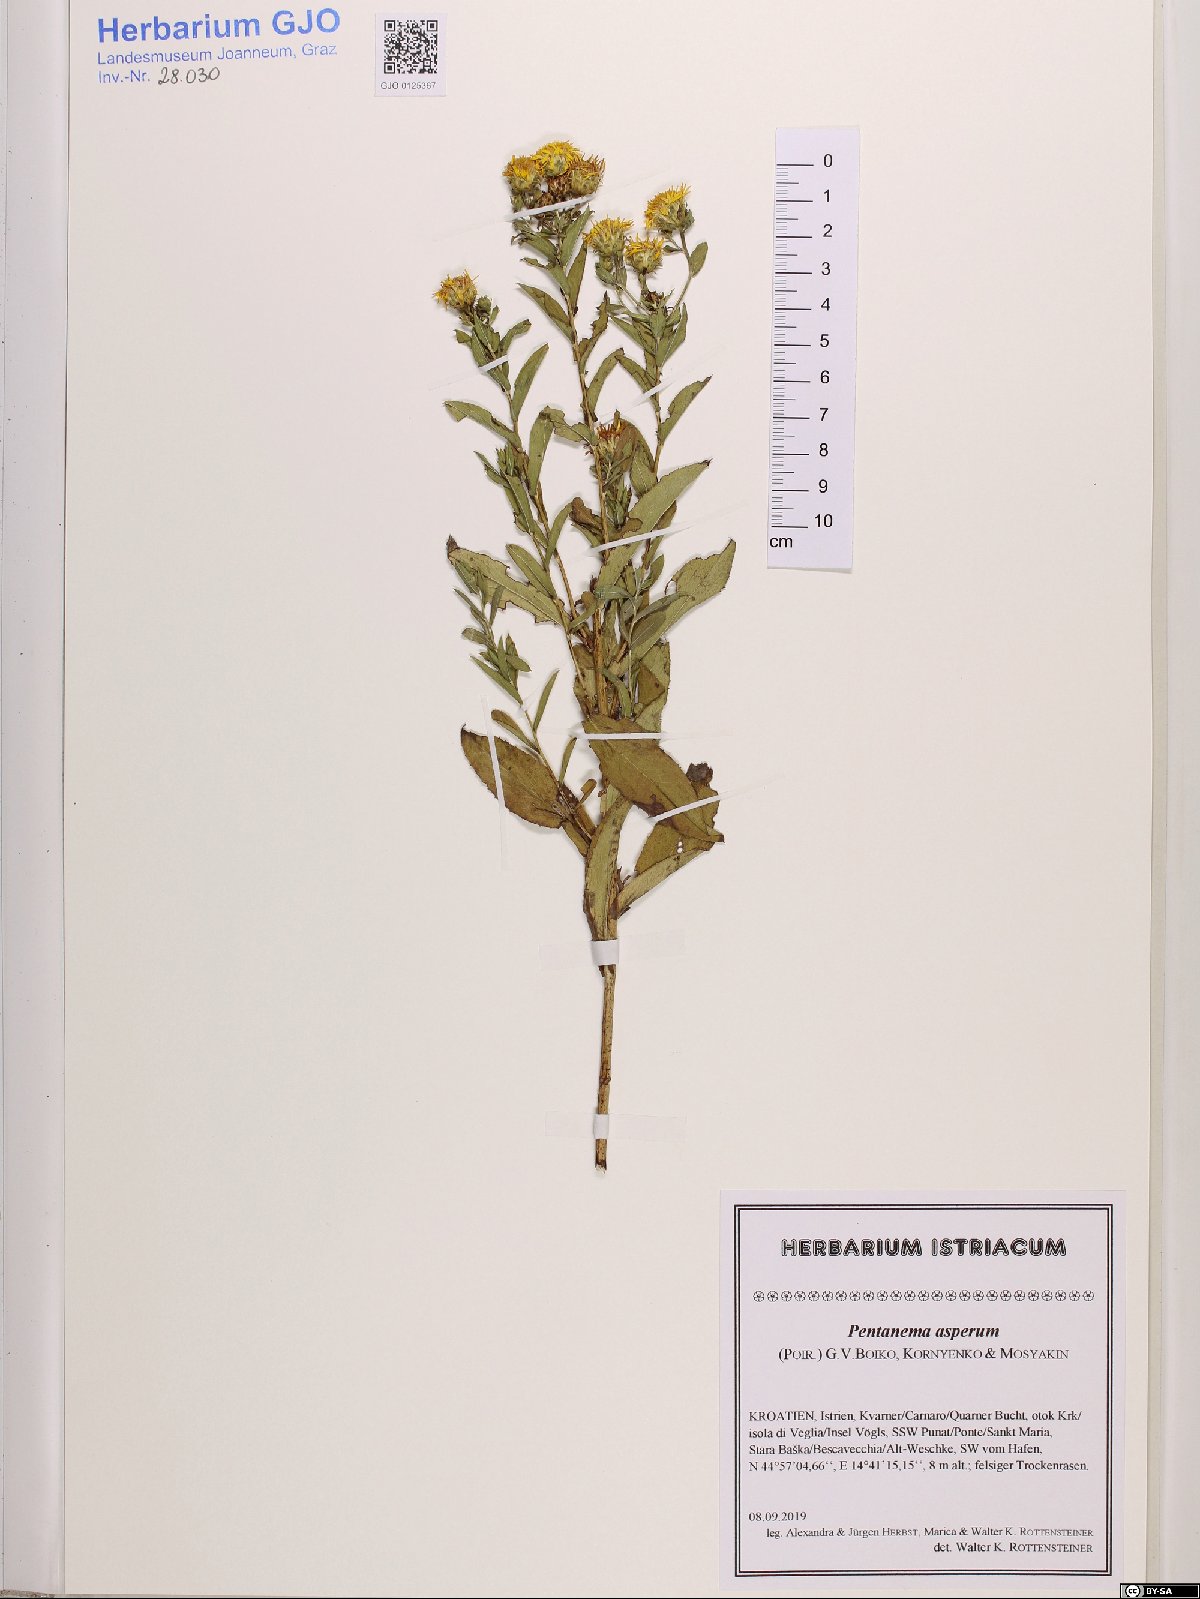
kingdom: Plantae
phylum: Tracheophyta
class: Magnoliopsida
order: Asterales
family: Asteraceae
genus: Pentanema
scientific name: Pentanema asperum
